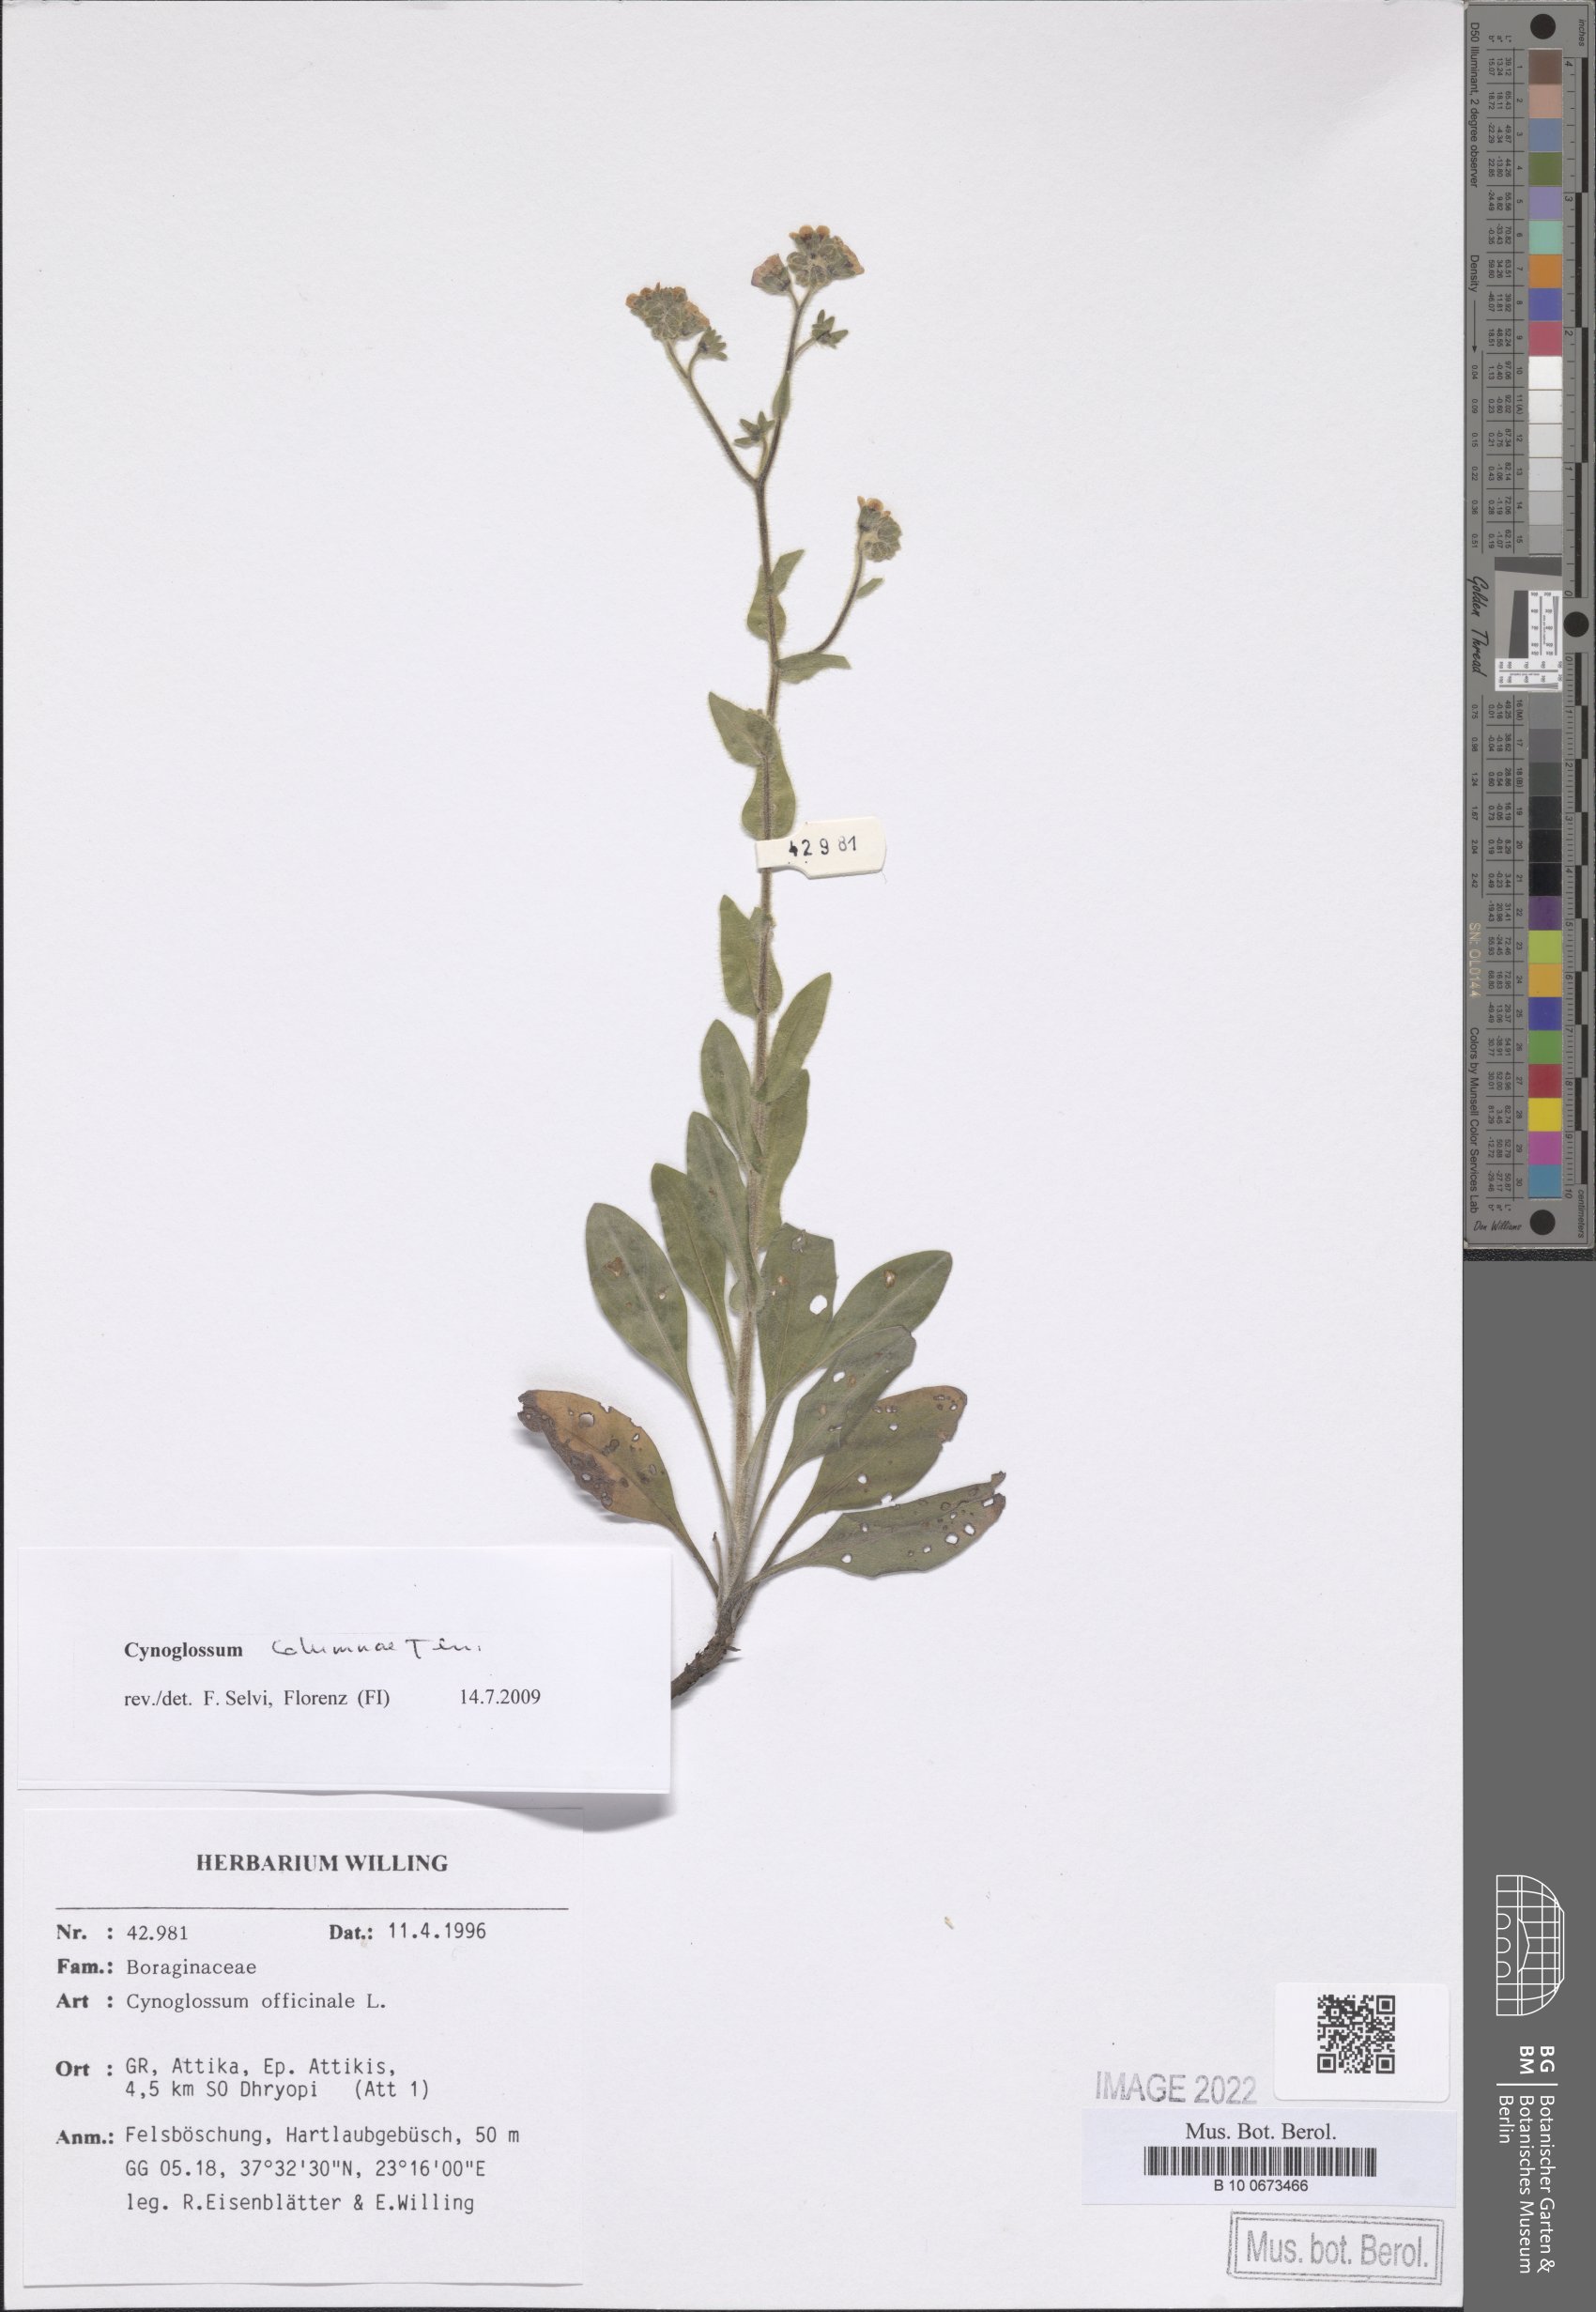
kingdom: Plantae
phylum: Tracheophyta
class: Magnoliopsida
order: Boraginales
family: Boraginaceae
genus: Rindera
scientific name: Rindera columnae
